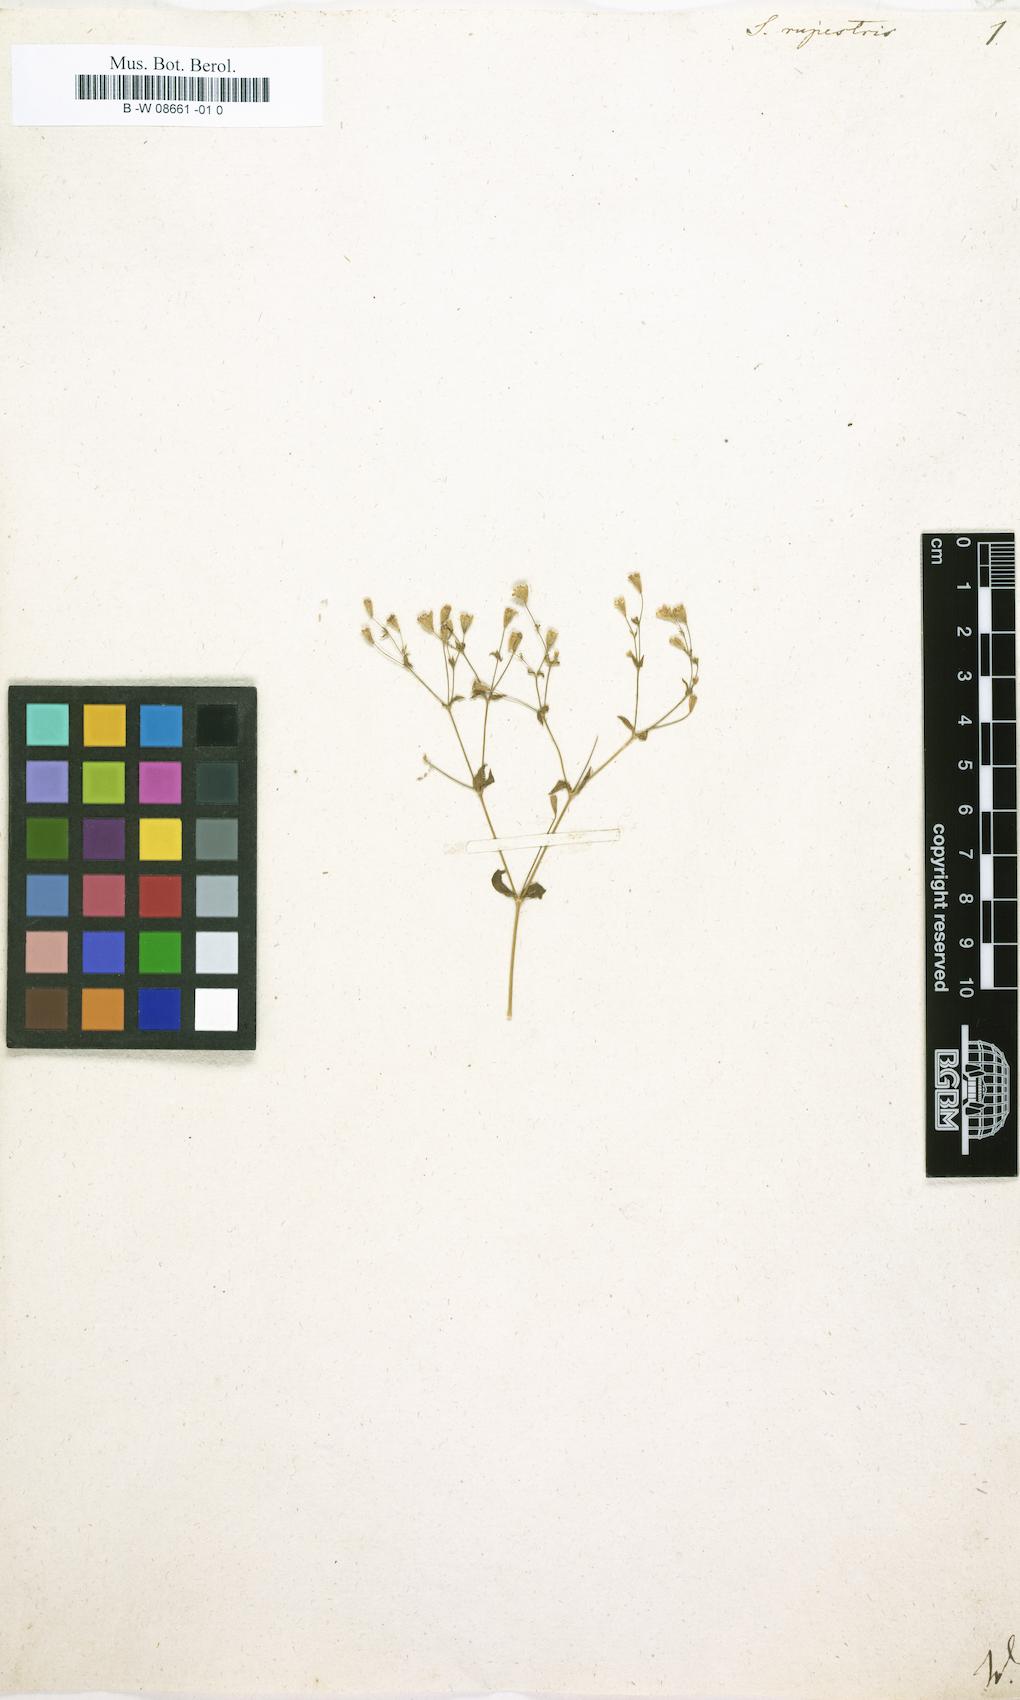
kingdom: Plantae
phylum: Tracheophyta
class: Magnoliopsida
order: Caryophyllales
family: Caryophyllaceae
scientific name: Caryophyllaceae
